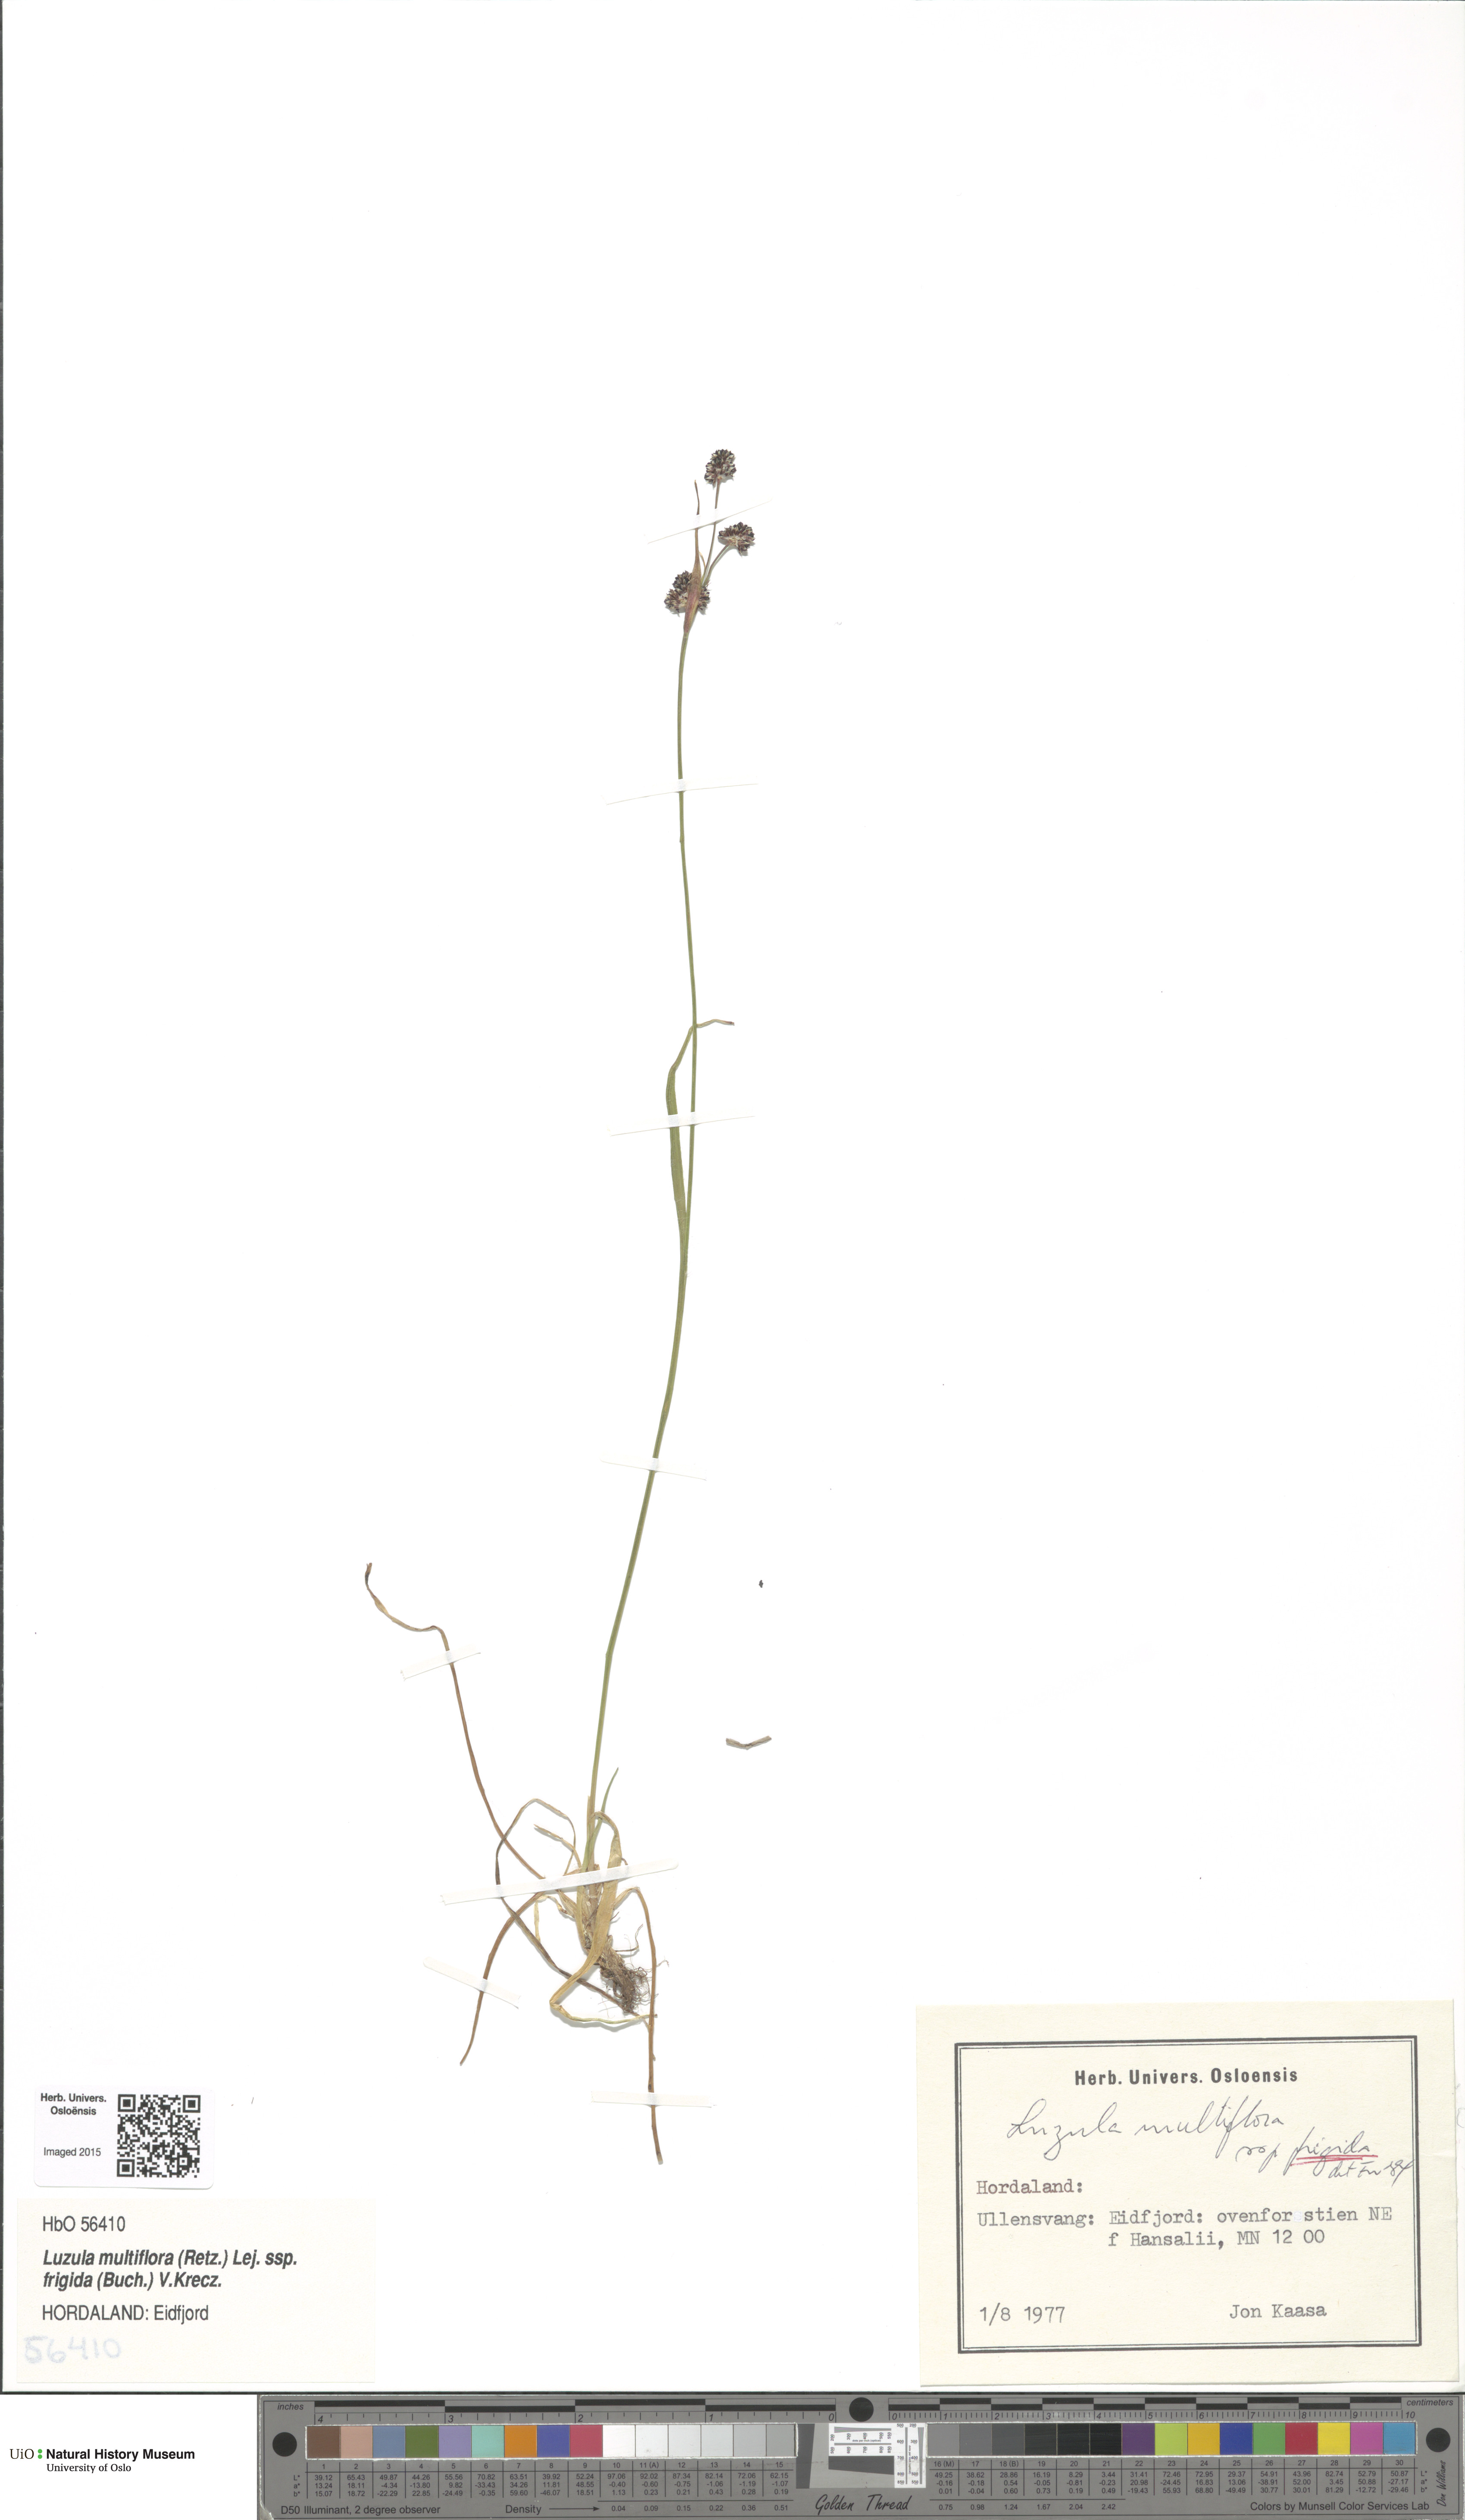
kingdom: Plantae
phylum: Tracheophyta
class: Liliopsida
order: Poales
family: Juncaceae
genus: Luzula
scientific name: Luzula multiflora
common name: Heath wood-rush
